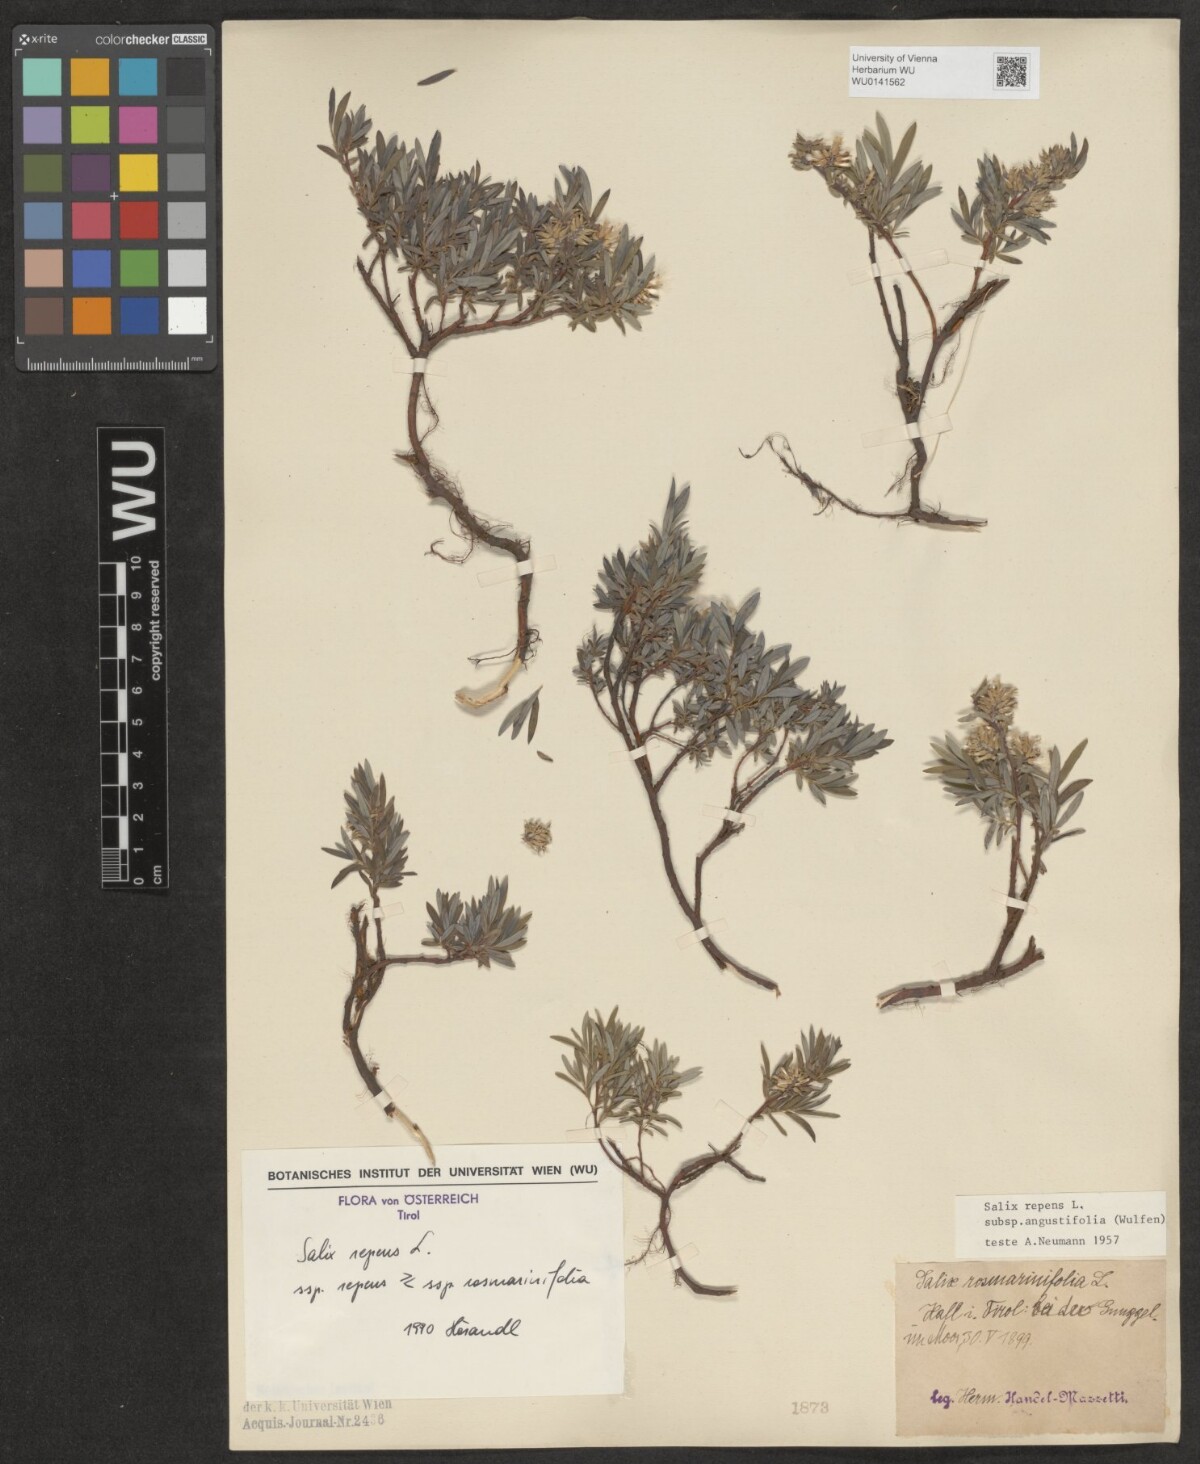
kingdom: Plantae
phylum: Tracheophyta
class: Magnoliopsida
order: Malpighiales
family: Salicaceae
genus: Salix
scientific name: Salix repens
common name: Creeping willow
